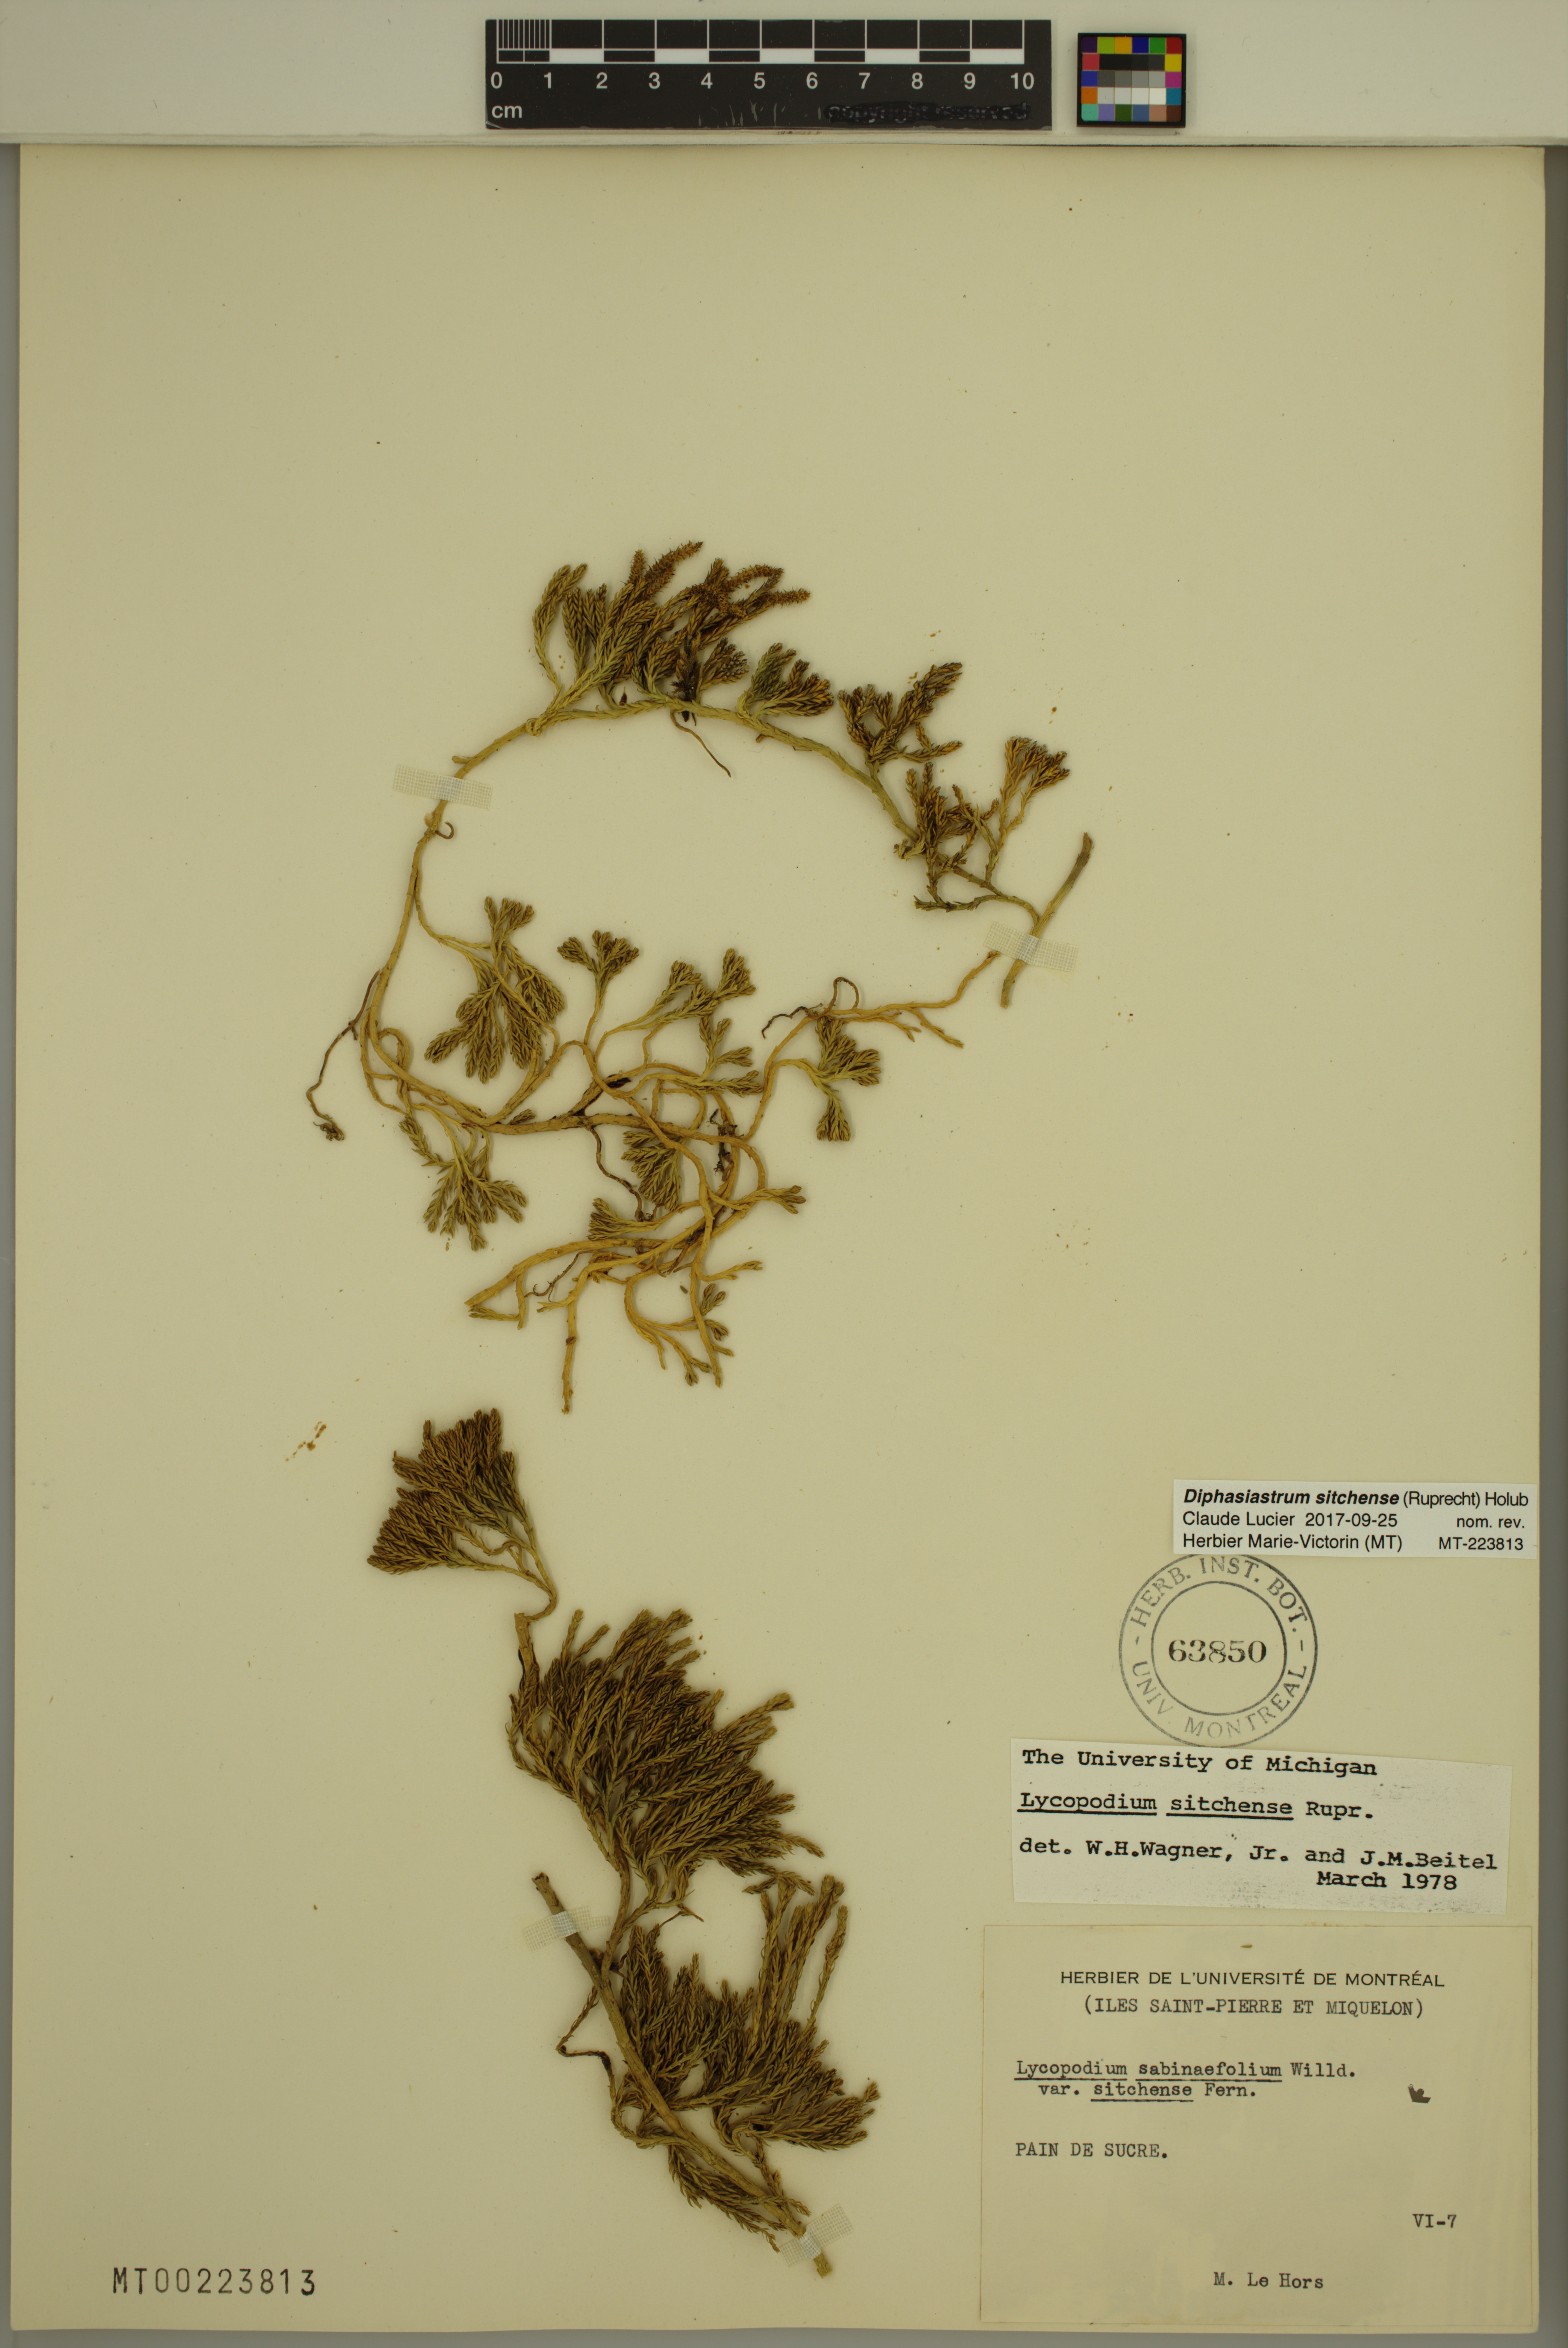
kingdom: Plantae
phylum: Tracheophyta
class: Lycopodiopsida
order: Lycopodiales
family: Lycopodiaceae
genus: Diphasiastrum
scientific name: Diphasiastrum sitchense
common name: Alaska clubmoss
